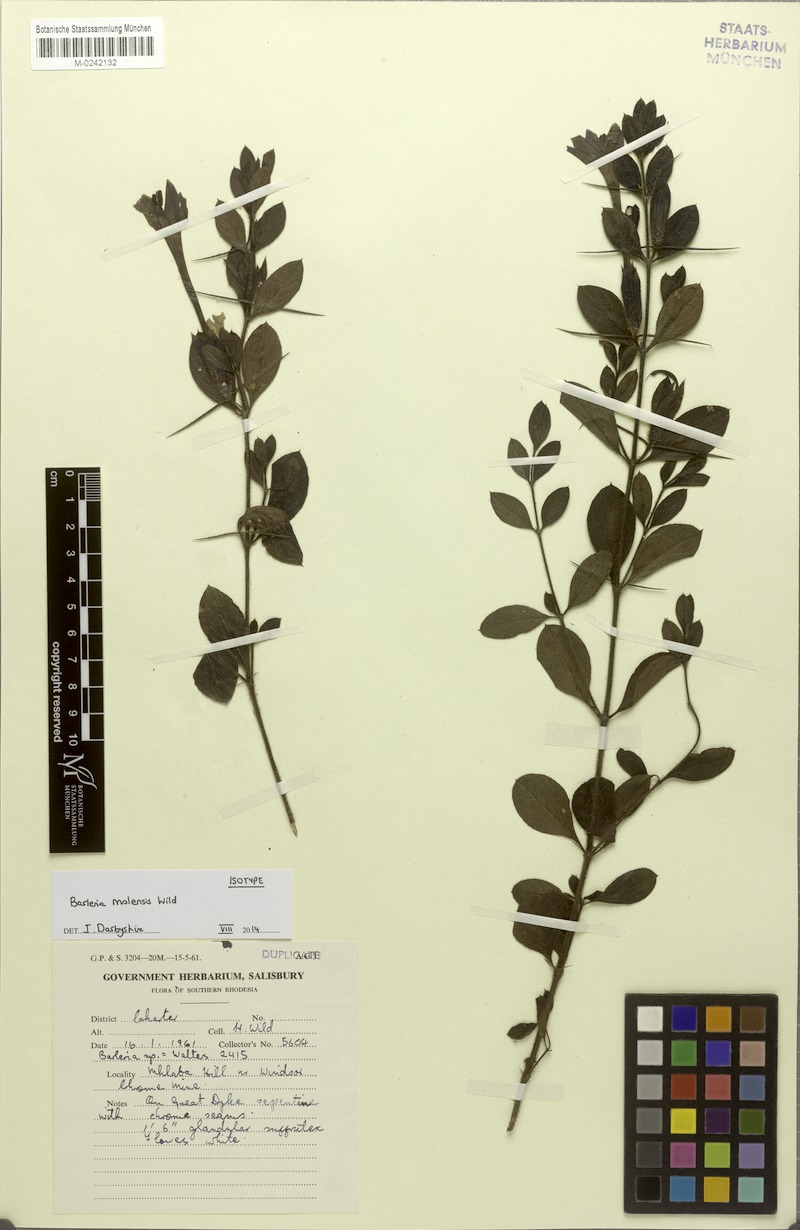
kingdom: Plantae
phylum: Tracheophyta
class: Magnoliopsida
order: Lamiales
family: Acanthaceae
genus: Barleria
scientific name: Barleria molensis
